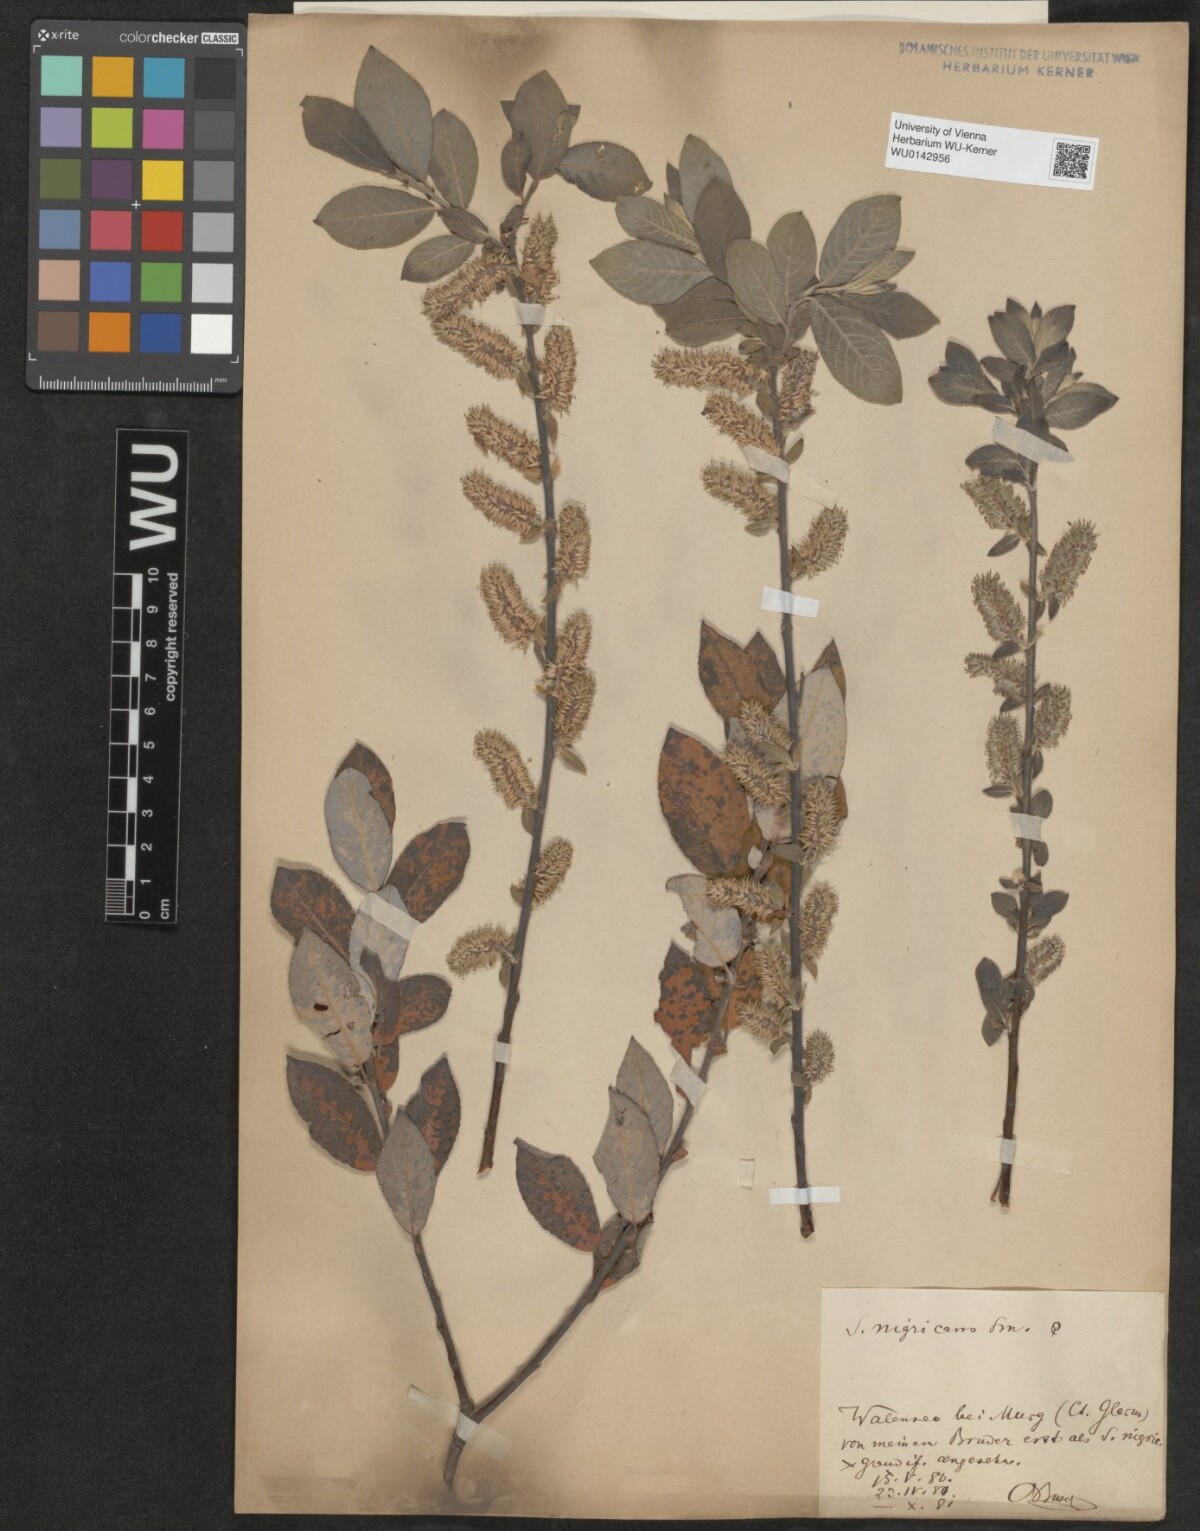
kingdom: Plantae
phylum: Tracheophyta
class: Magnoliopsida
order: Malpighiales
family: Salicaceae
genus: Salix
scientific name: Salix myrsinifolia
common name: Dark-leaved willow
